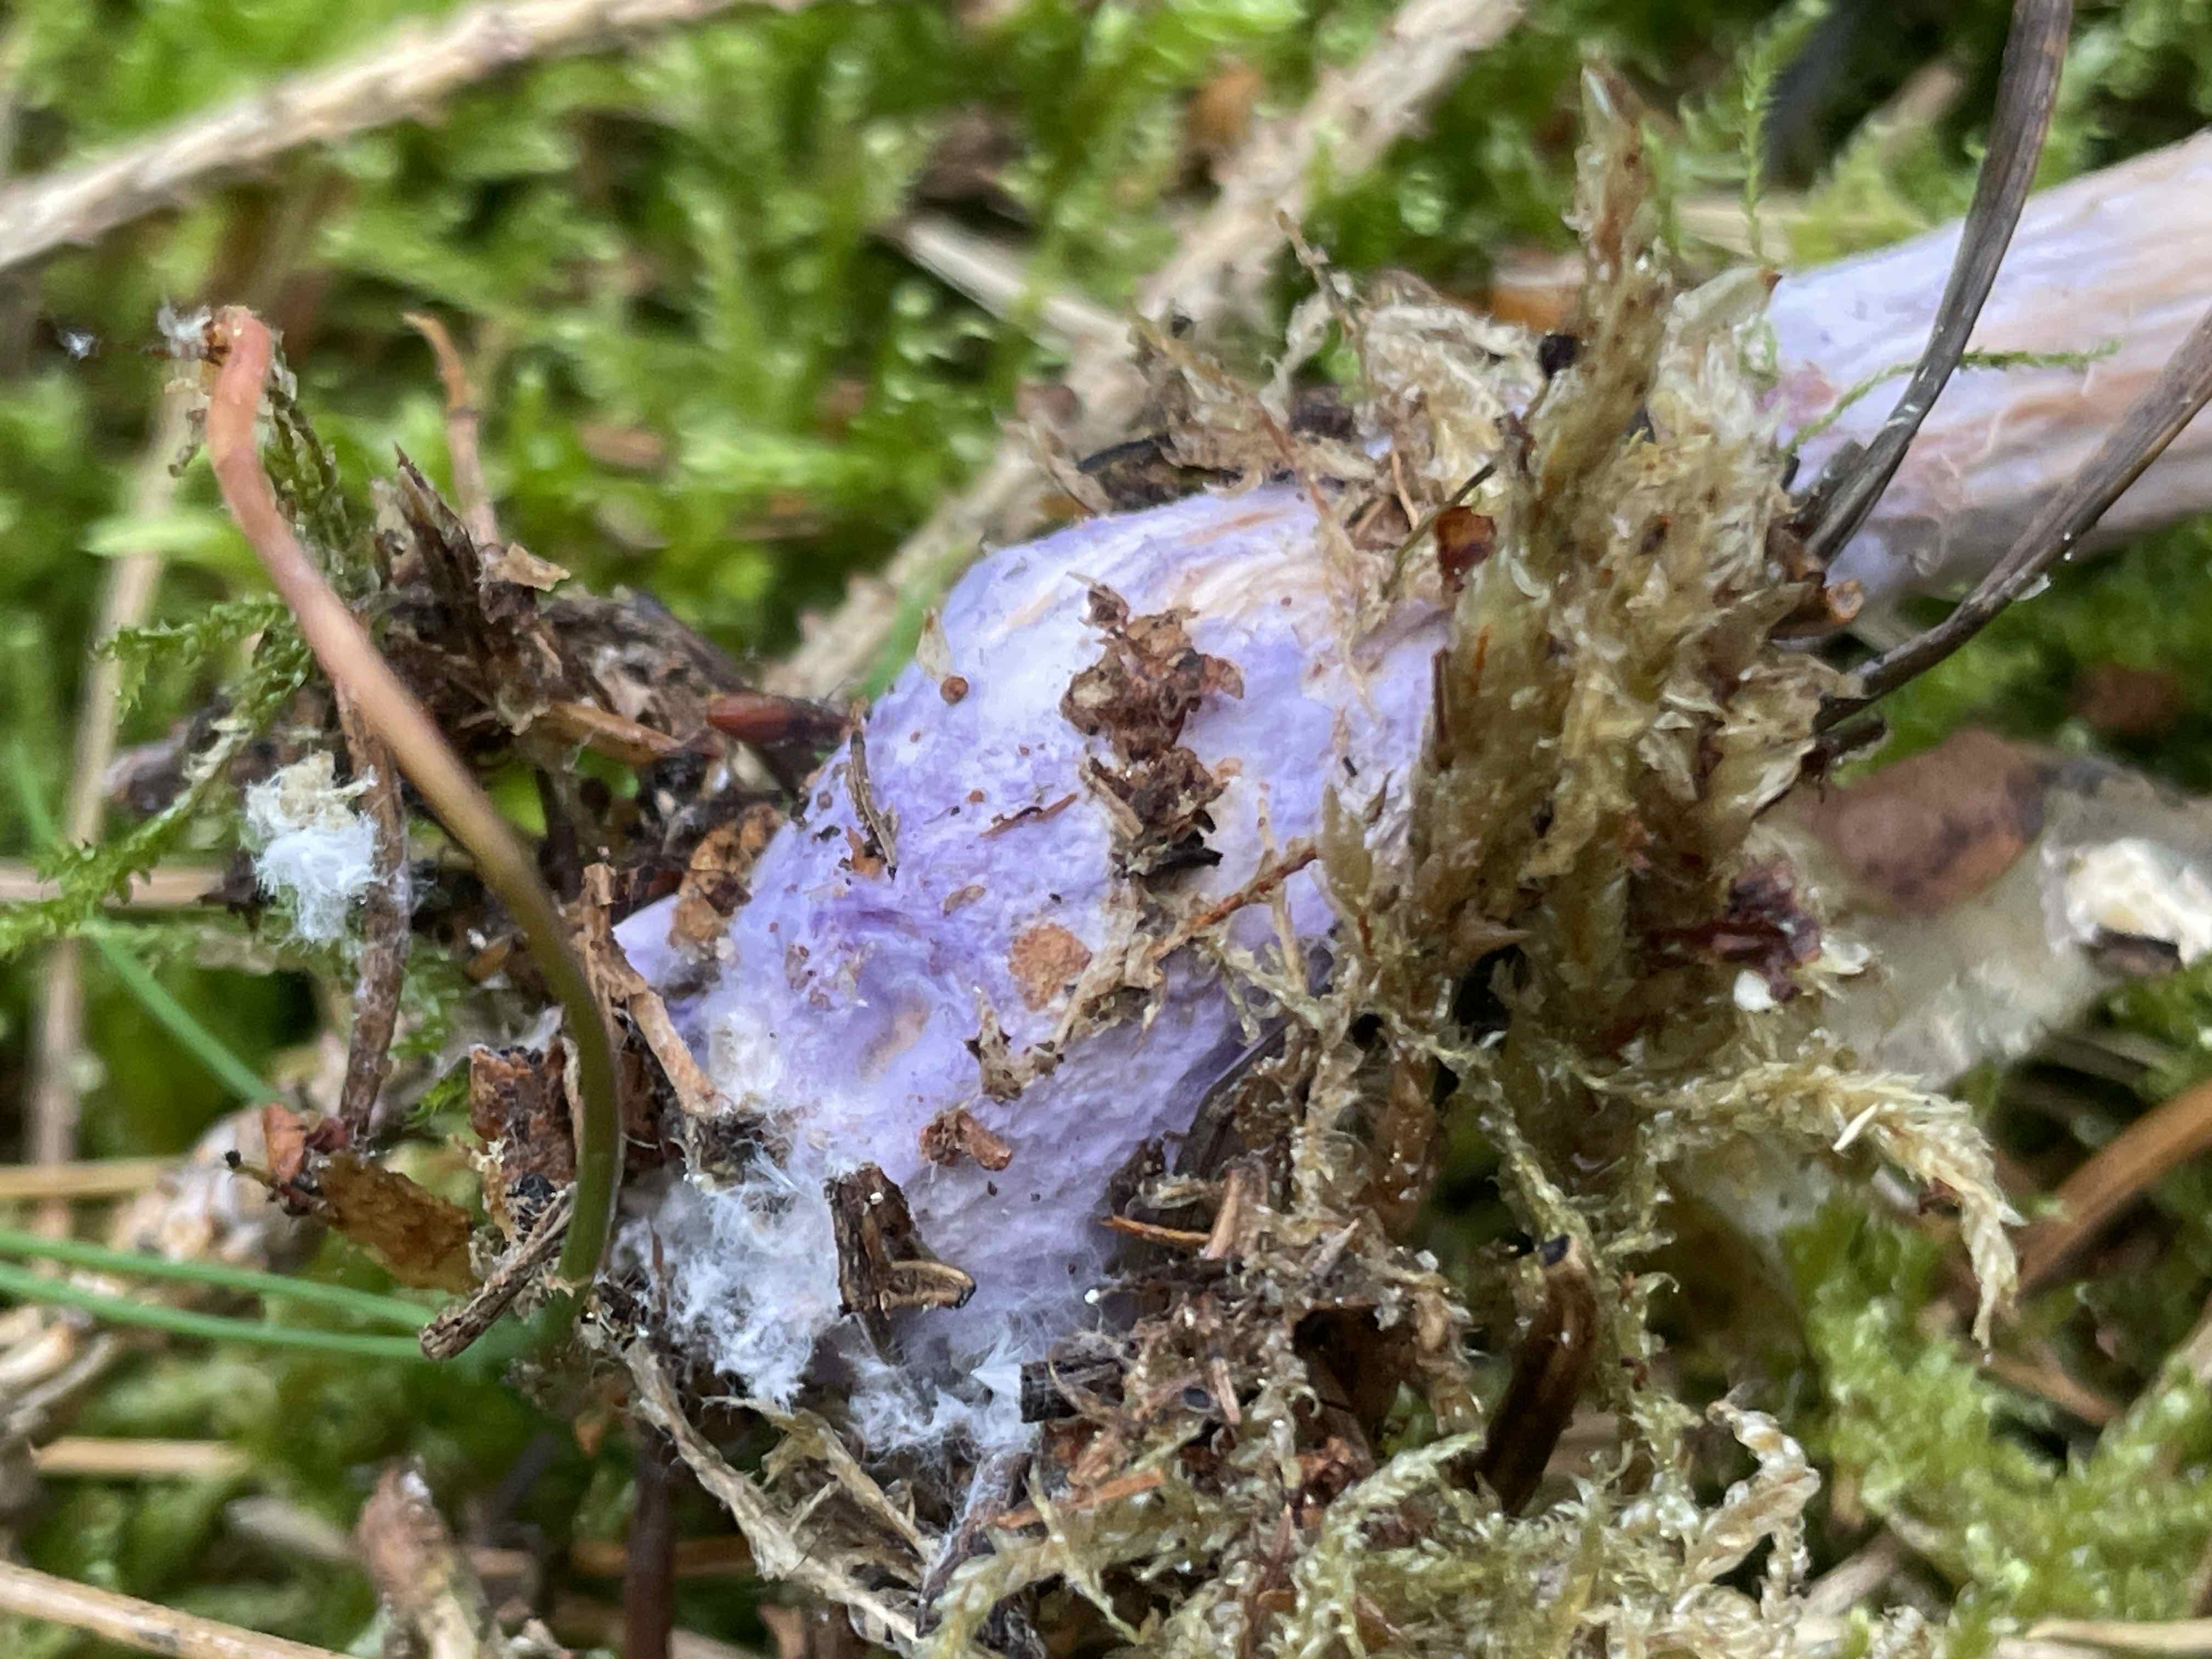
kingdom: Fungi
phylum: Basidiomycota
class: Agaricomycetes
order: Agaricales
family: Hydnangiaceae
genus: Laccaria
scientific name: Laccaria bicolor
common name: tvefarvet ametysthat
